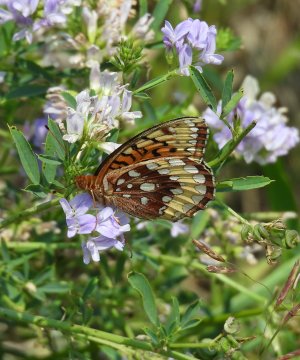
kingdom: Animalia
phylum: Arthropoda
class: Insecta
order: Lepidoptera
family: Nymphalidae
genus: Speyeria
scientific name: Speyeria cybele
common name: Great Spangled Fritillary
